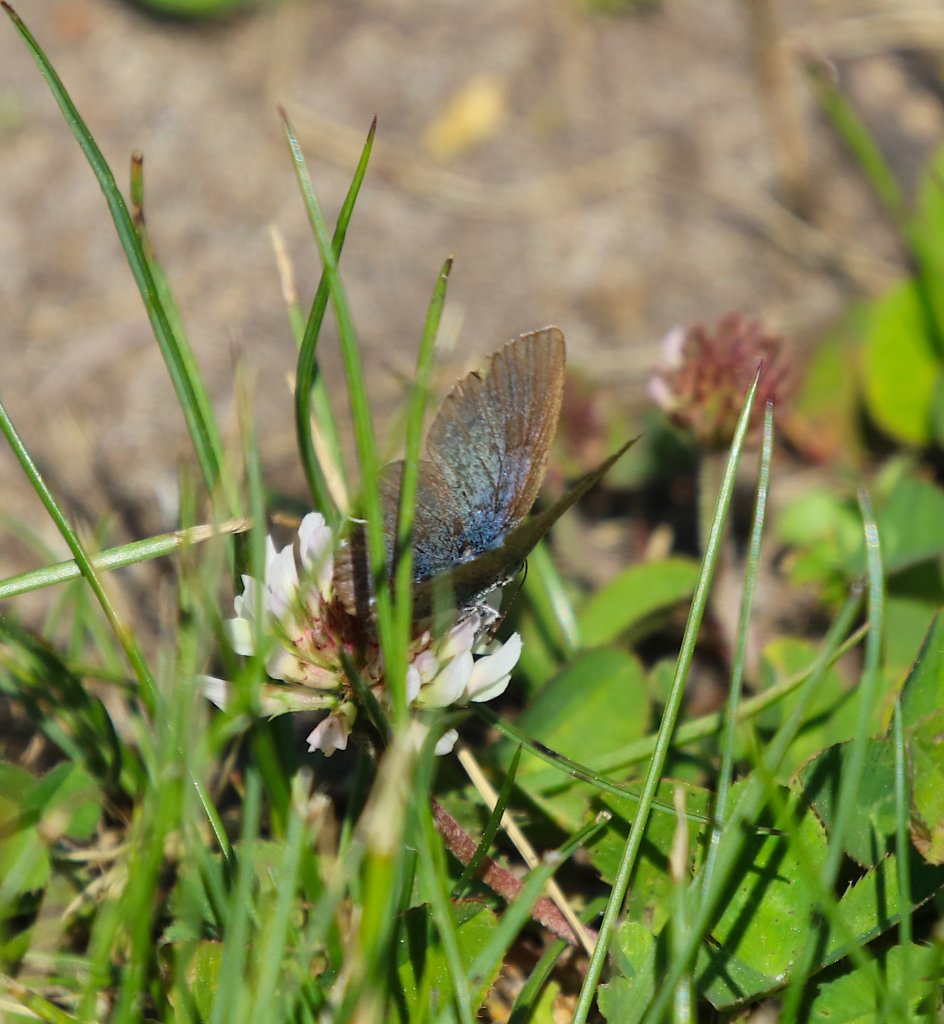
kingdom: Animalia
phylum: Arthropoda
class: Insecta
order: Lepidoptera
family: Lycaenidae
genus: Glaucopsyche
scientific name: Glaucopsyche lygdamus
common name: Silvery Blue
